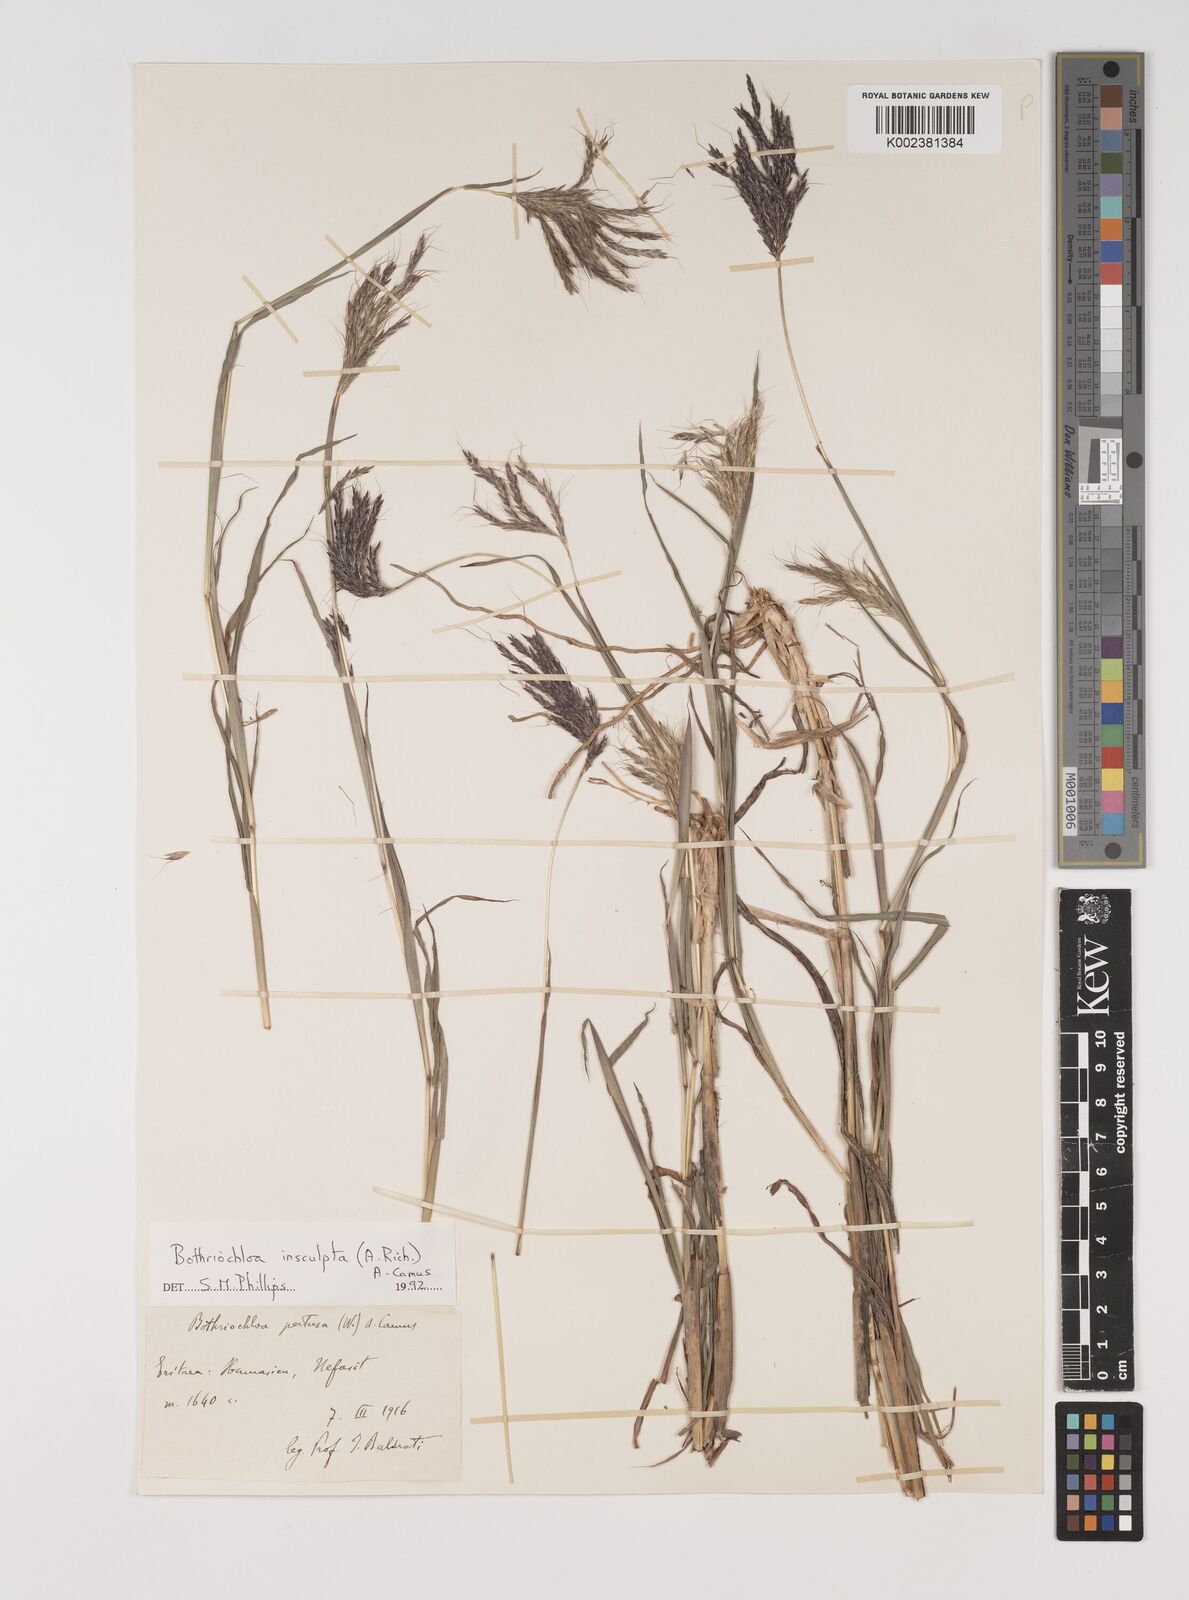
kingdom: Plantae
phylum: Tracheophyta
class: Liliopsida
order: Poales
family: Poaceae
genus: Bothriochloa
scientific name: Bothriochloa insculpta
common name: Creeping-bluegrass
